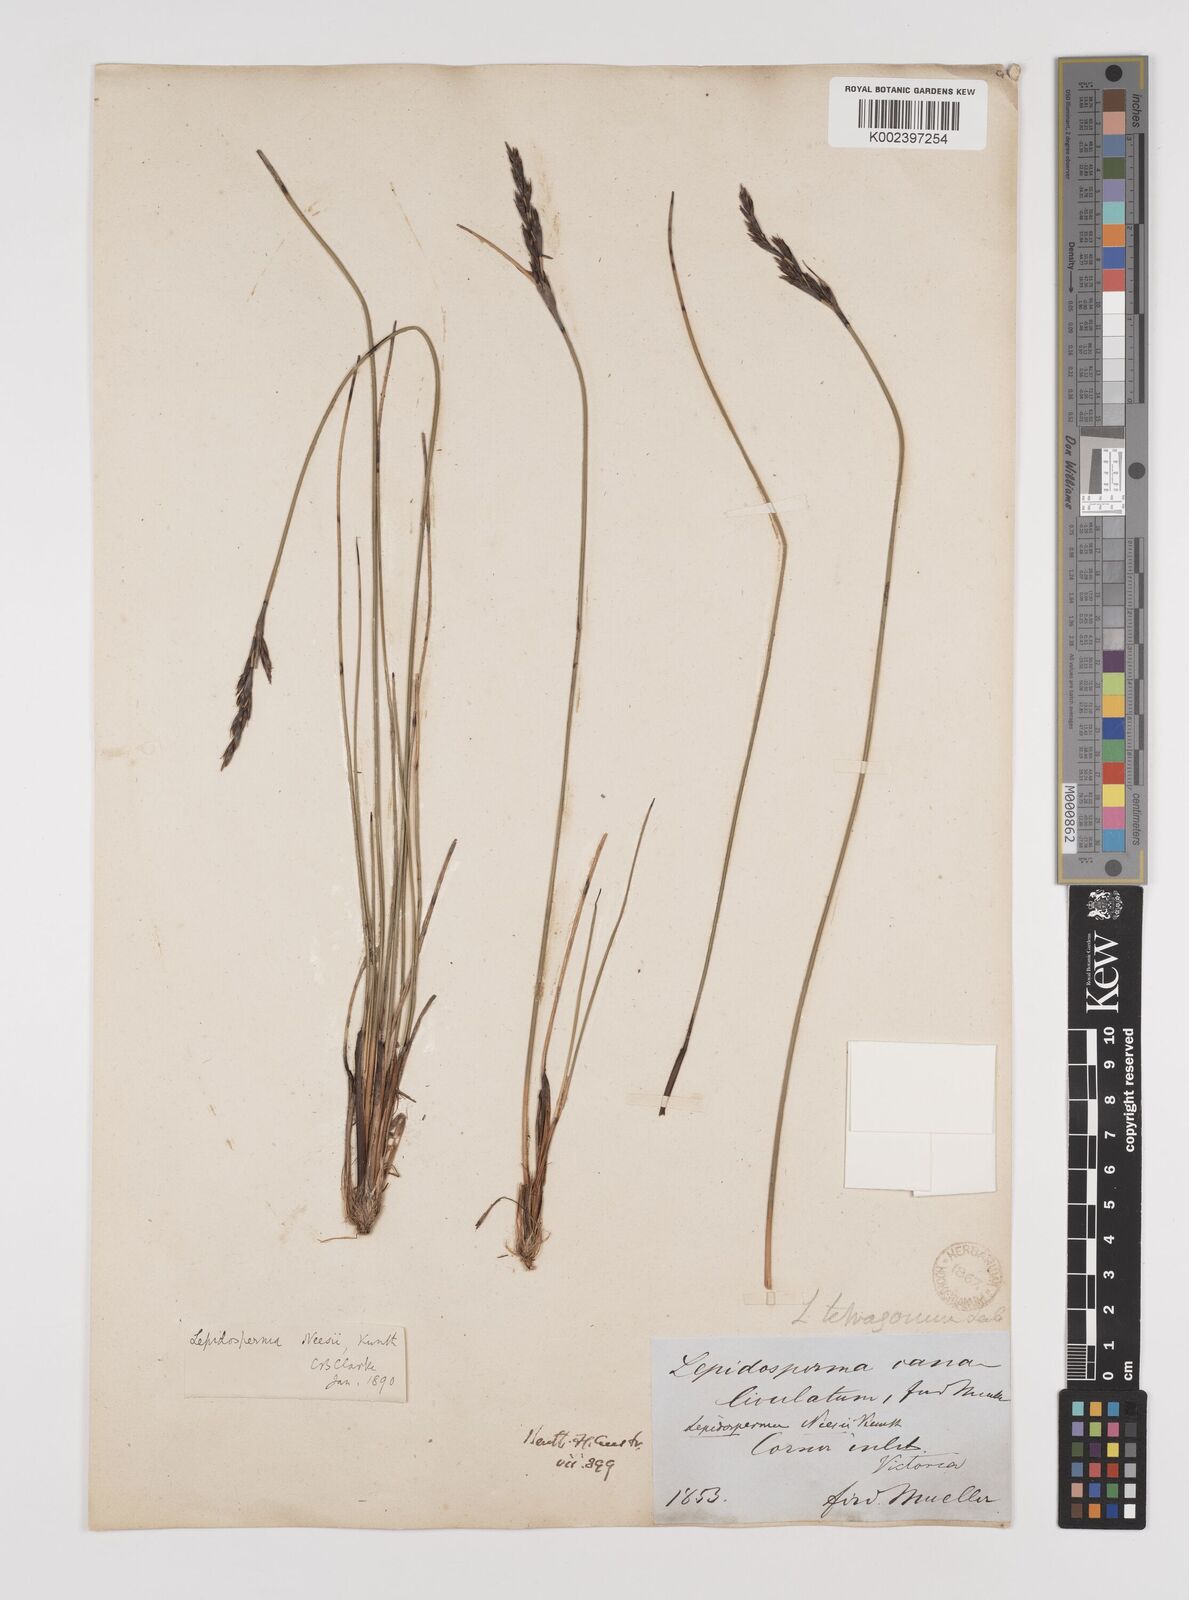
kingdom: Plantae
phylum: Tracheophyta
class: Liliopsida
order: Poales
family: Cyperaceae
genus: Lepidosperma
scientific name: Lepidosperma neesii
